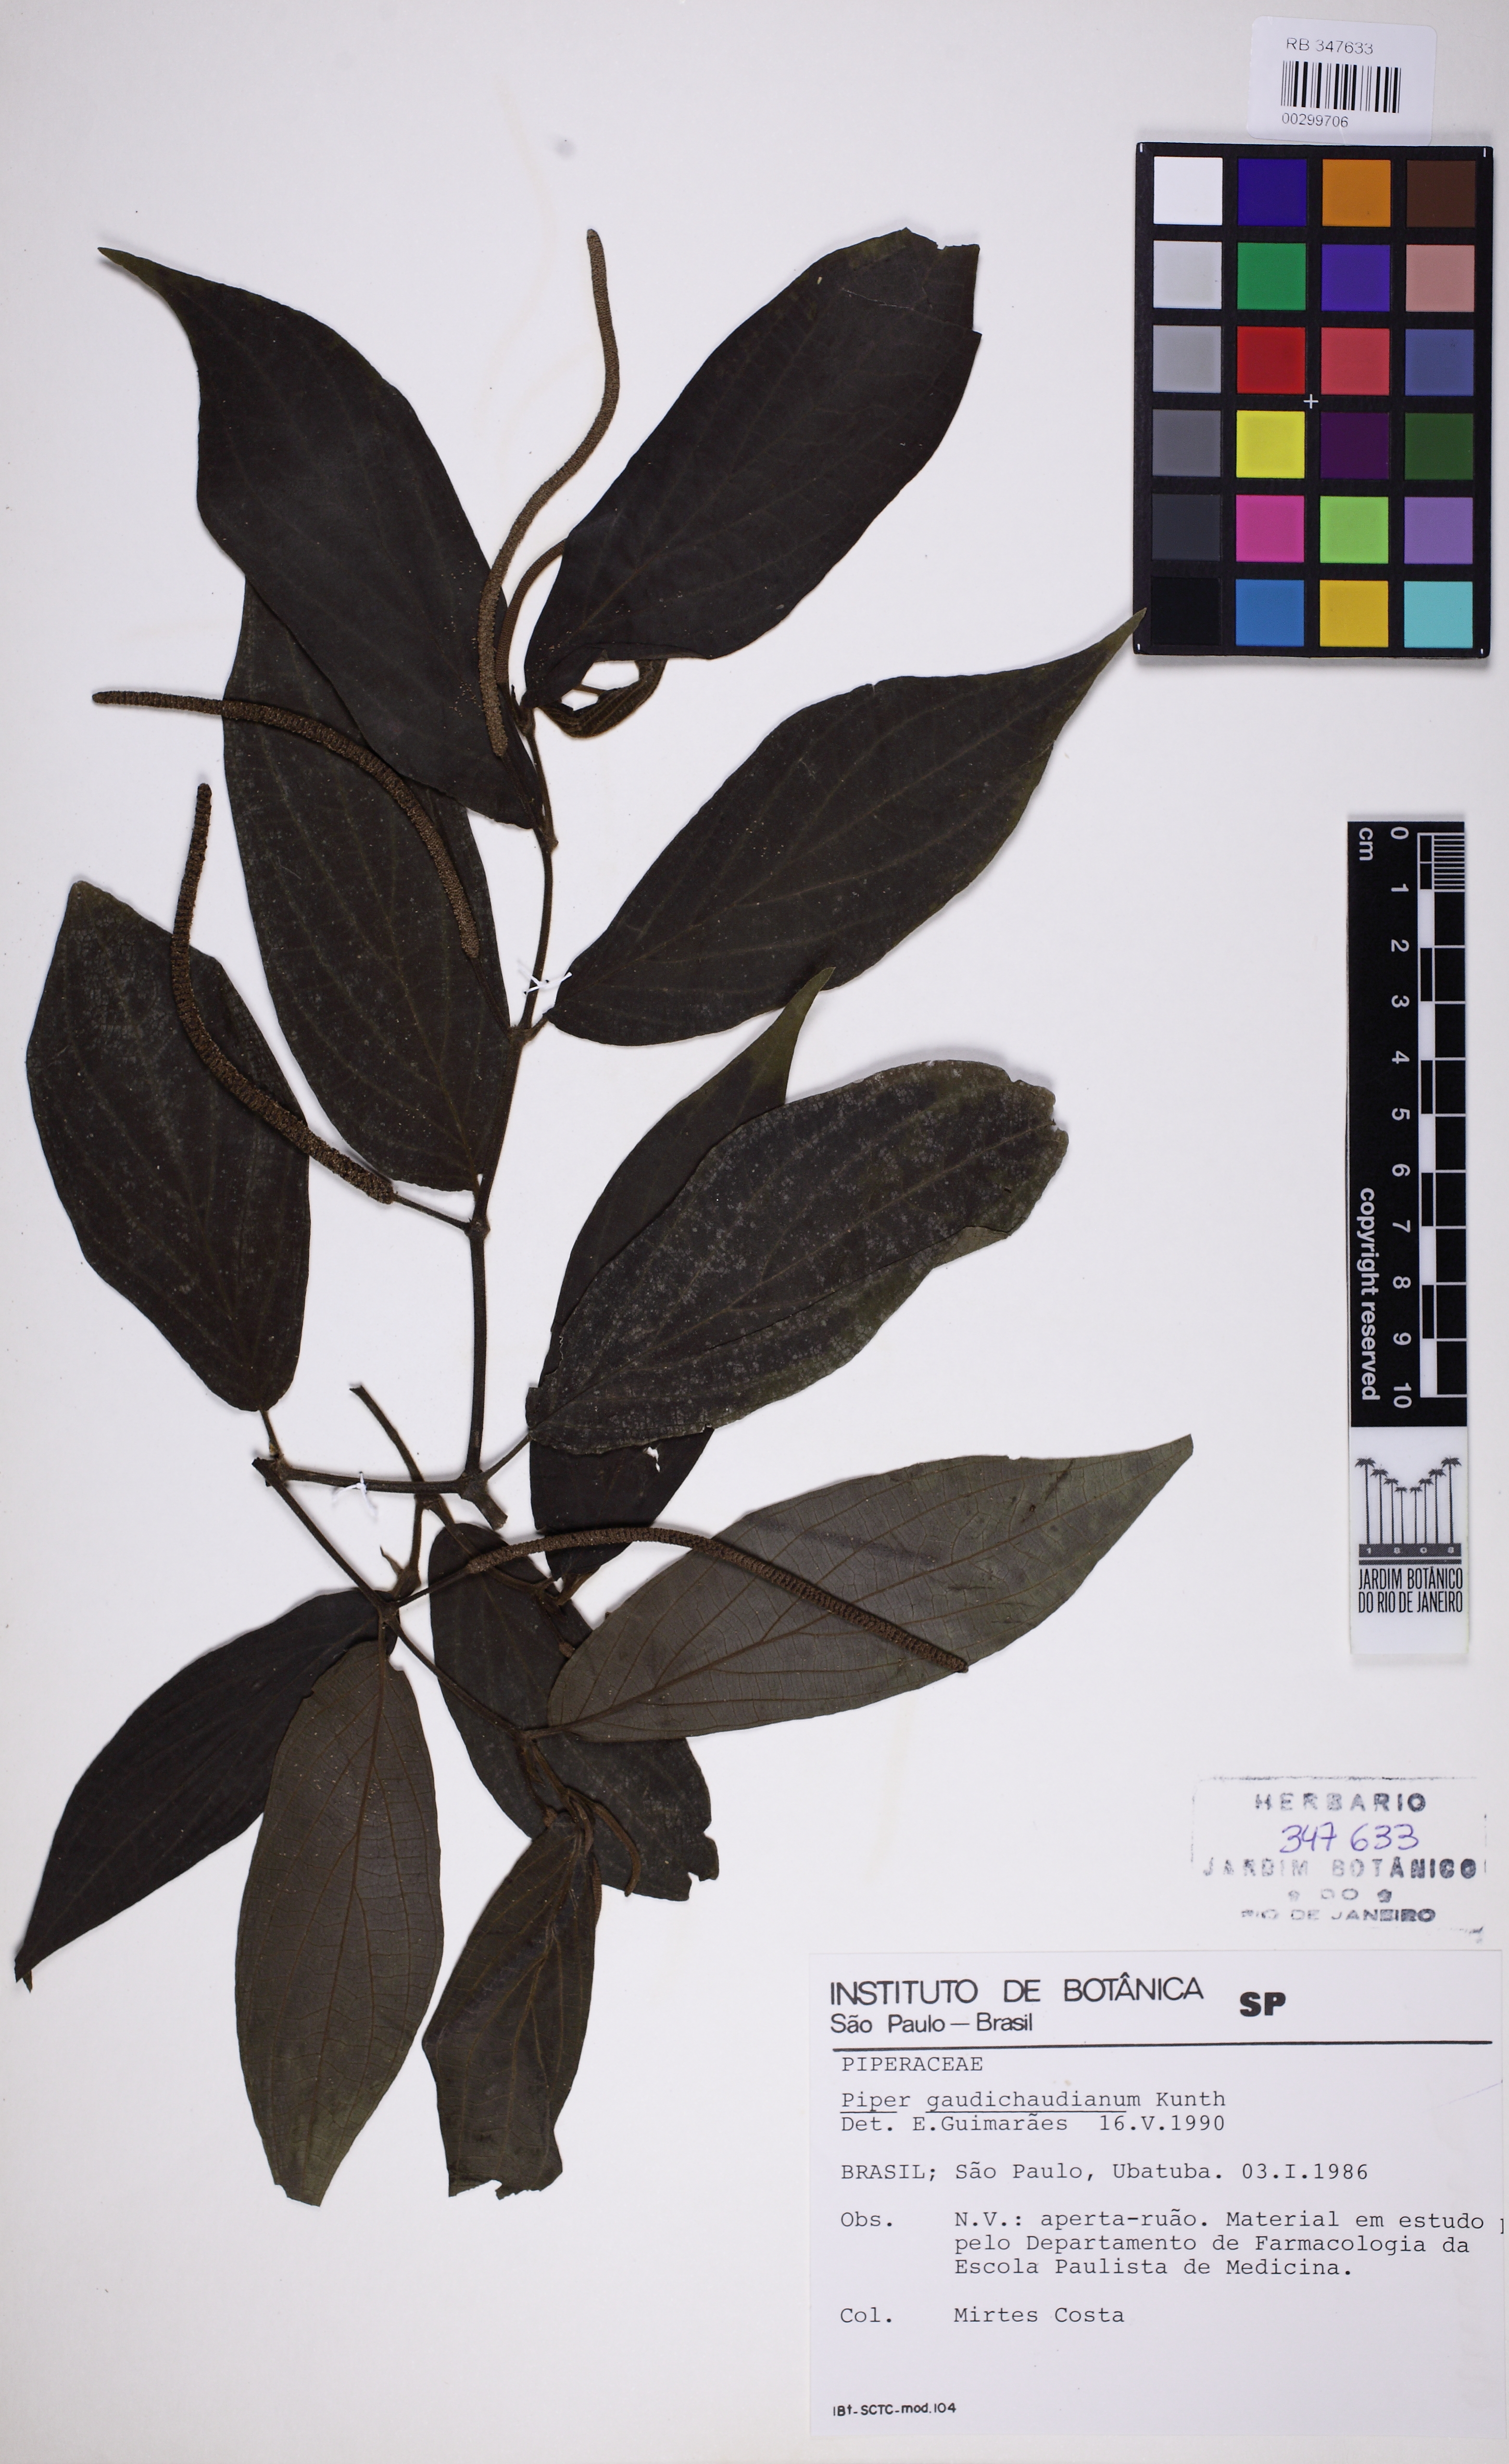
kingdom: Plantae
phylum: Tracheophyta
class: Magnoliopsida
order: Piperales
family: Piperaceae
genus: Piper
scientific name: Piper gaudichaudianum
